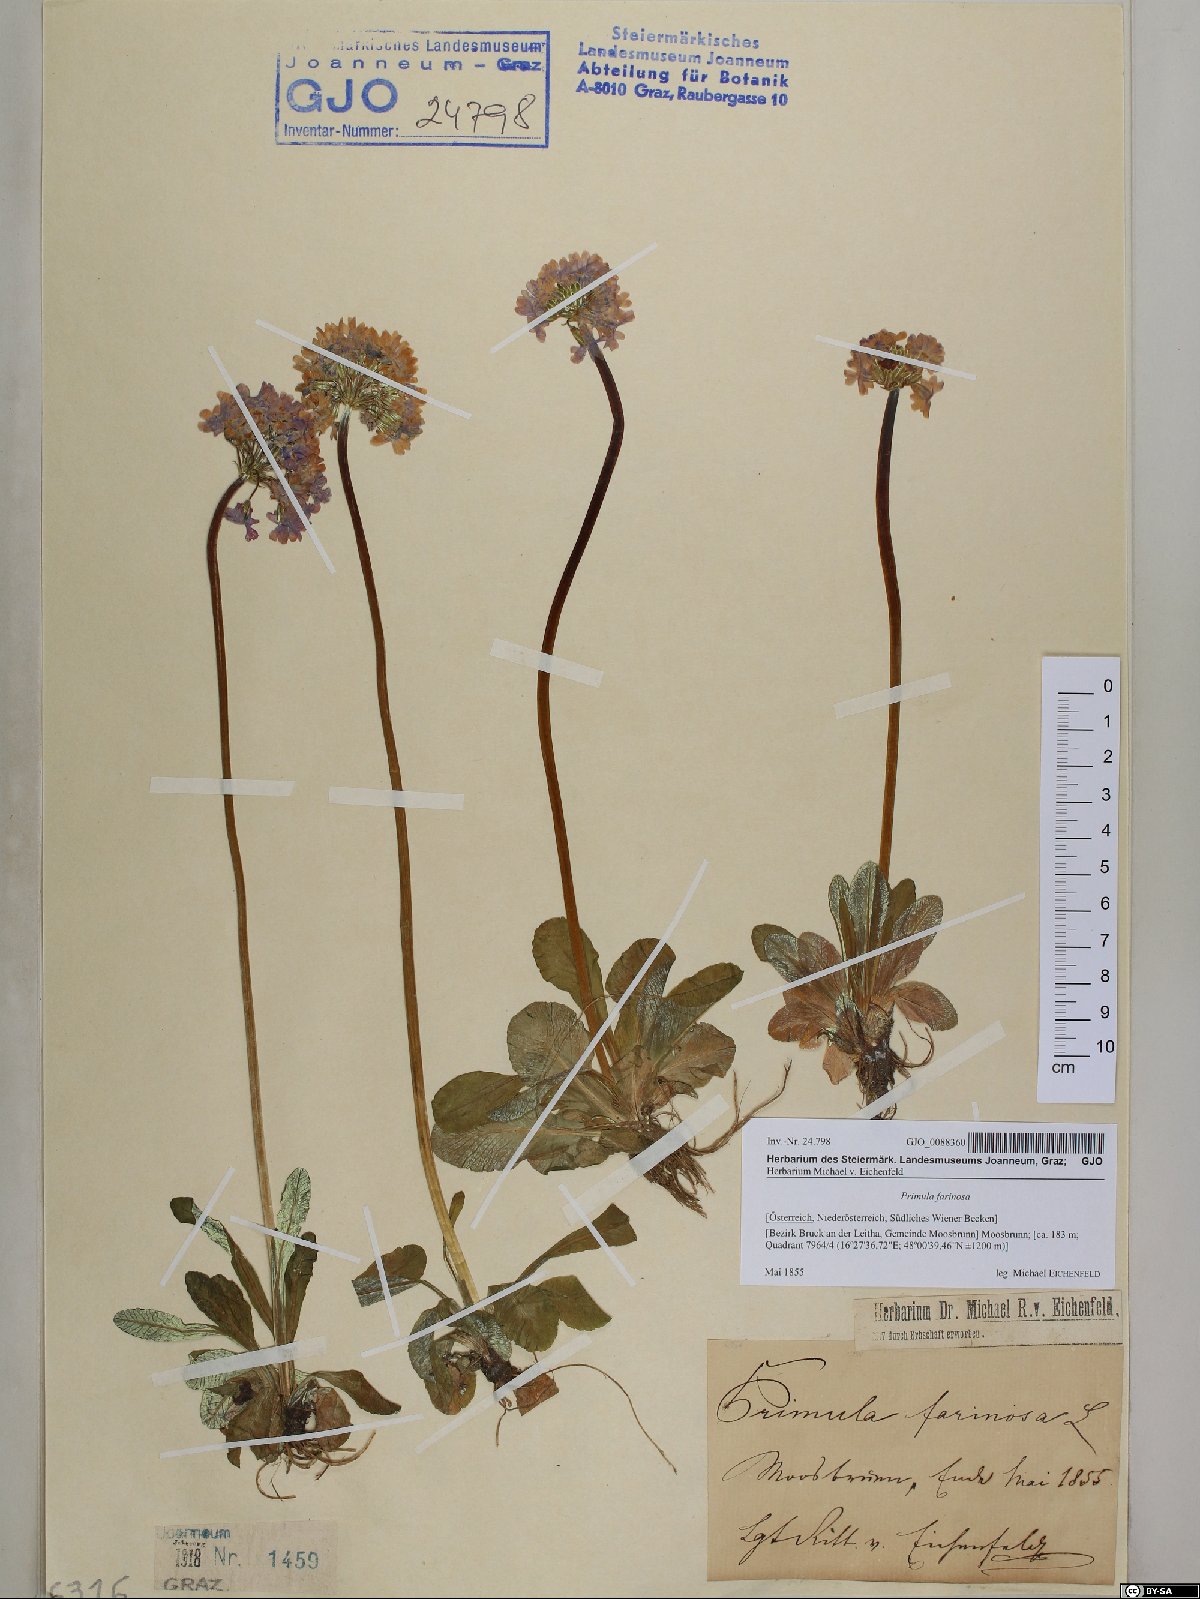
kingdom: Plantae
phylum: Tracheophyta
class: Magnoliopsida
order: Ericales
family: Primulaceae
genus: Primula
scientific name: Primula farinosa
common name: Bird's-eye primrose
